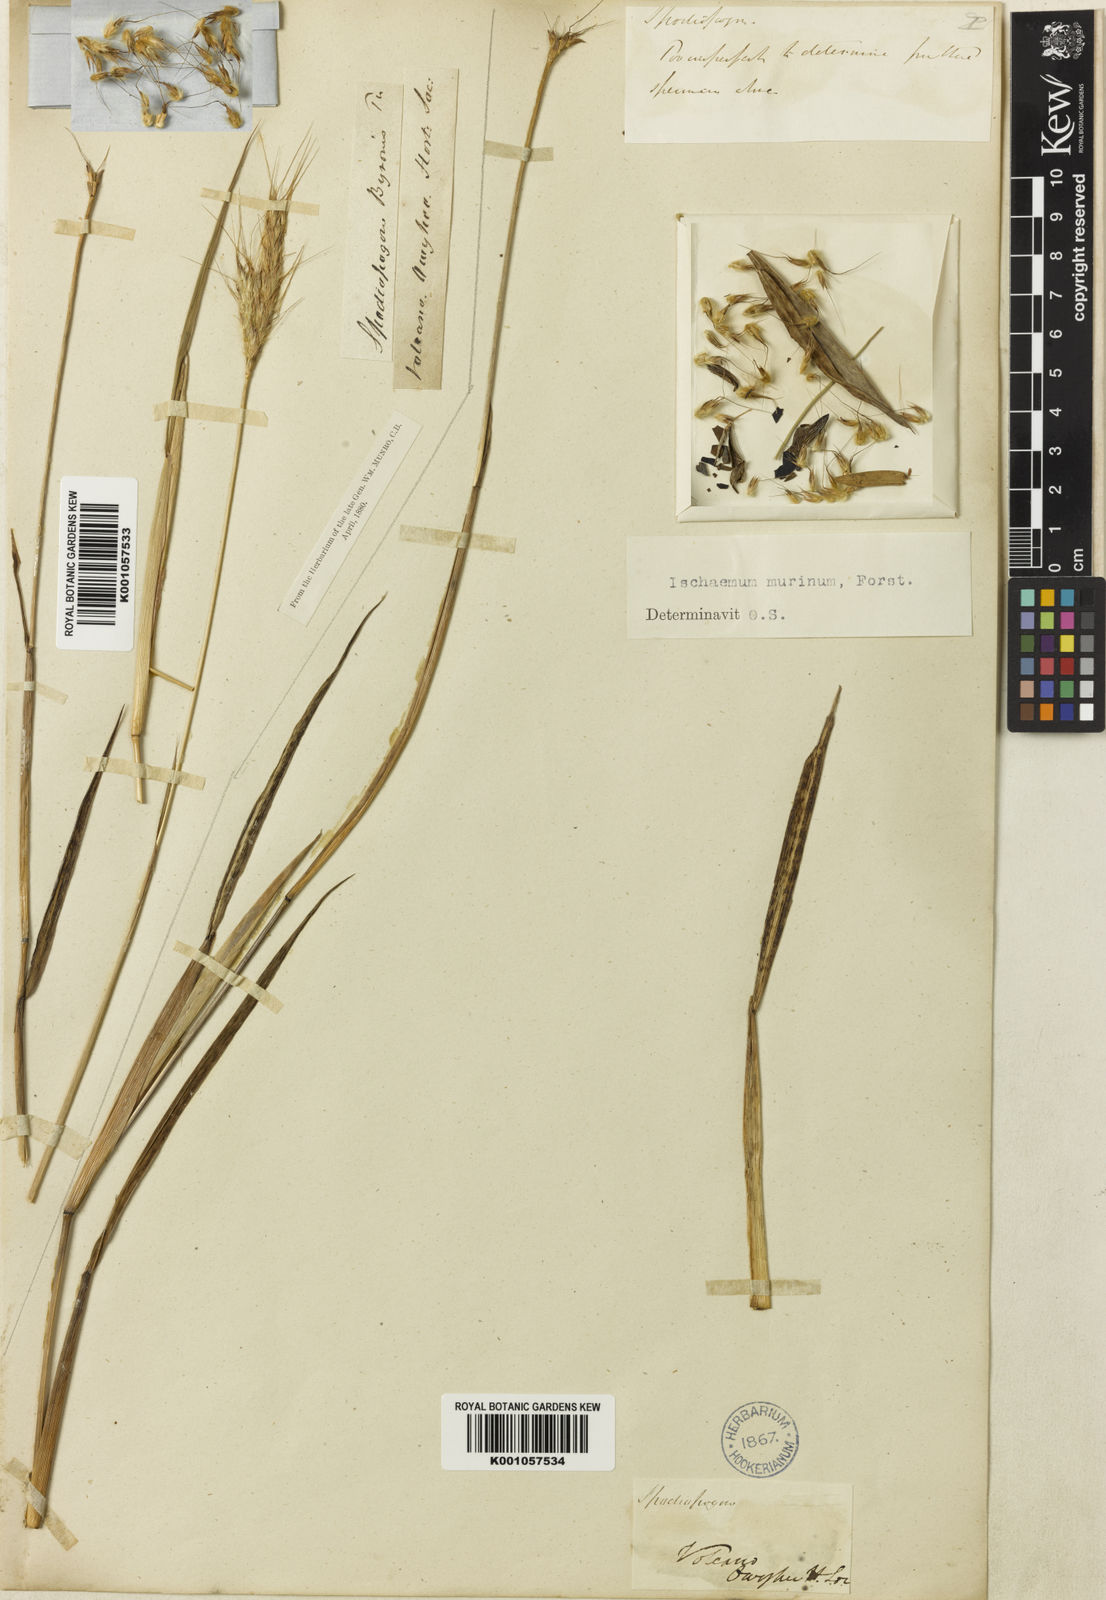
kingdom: Plantae
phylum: Tracheophyta
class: Liliopsida
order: Poales
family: Poaceae
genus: Ischaemum
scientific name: Ischaemum byrone
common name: Hilo ischaemum
